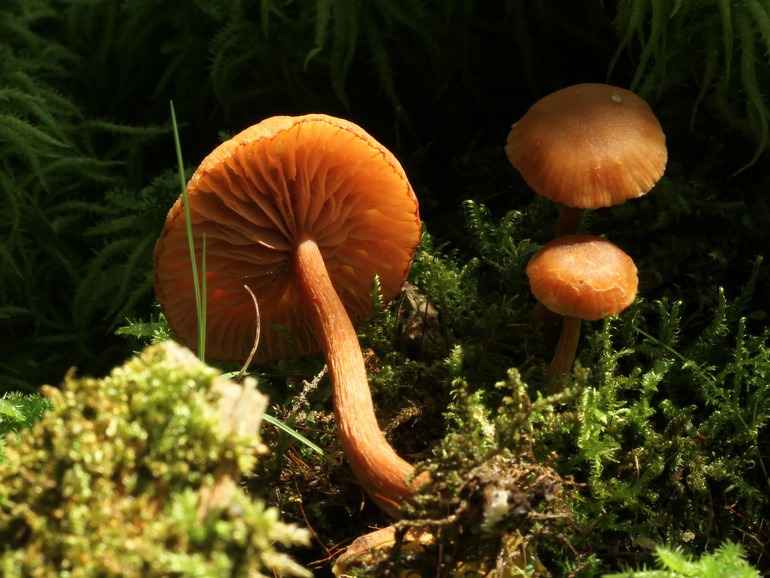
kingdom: Fungi
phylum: Basidiomycota
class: Agaricomycetes
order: Agaricales
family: Hydnangiaceae
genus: Laccaria
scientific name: Laccaria laccata
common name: rød ametysthat
